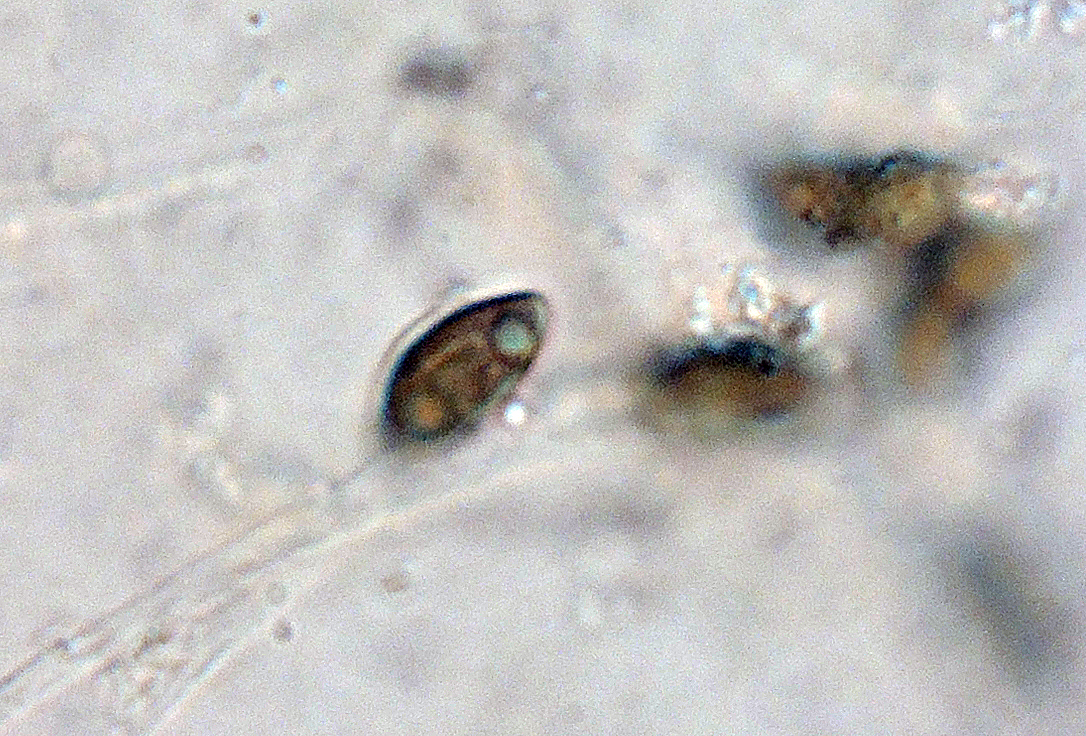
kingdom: Fungi
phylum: Ascomycota
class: Sordariomycetes
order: Xylariales
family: Hypoxylaceae
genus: Jackrogersella
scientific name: Jackrogersella cohaerens
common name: sammenflydende kulbær
